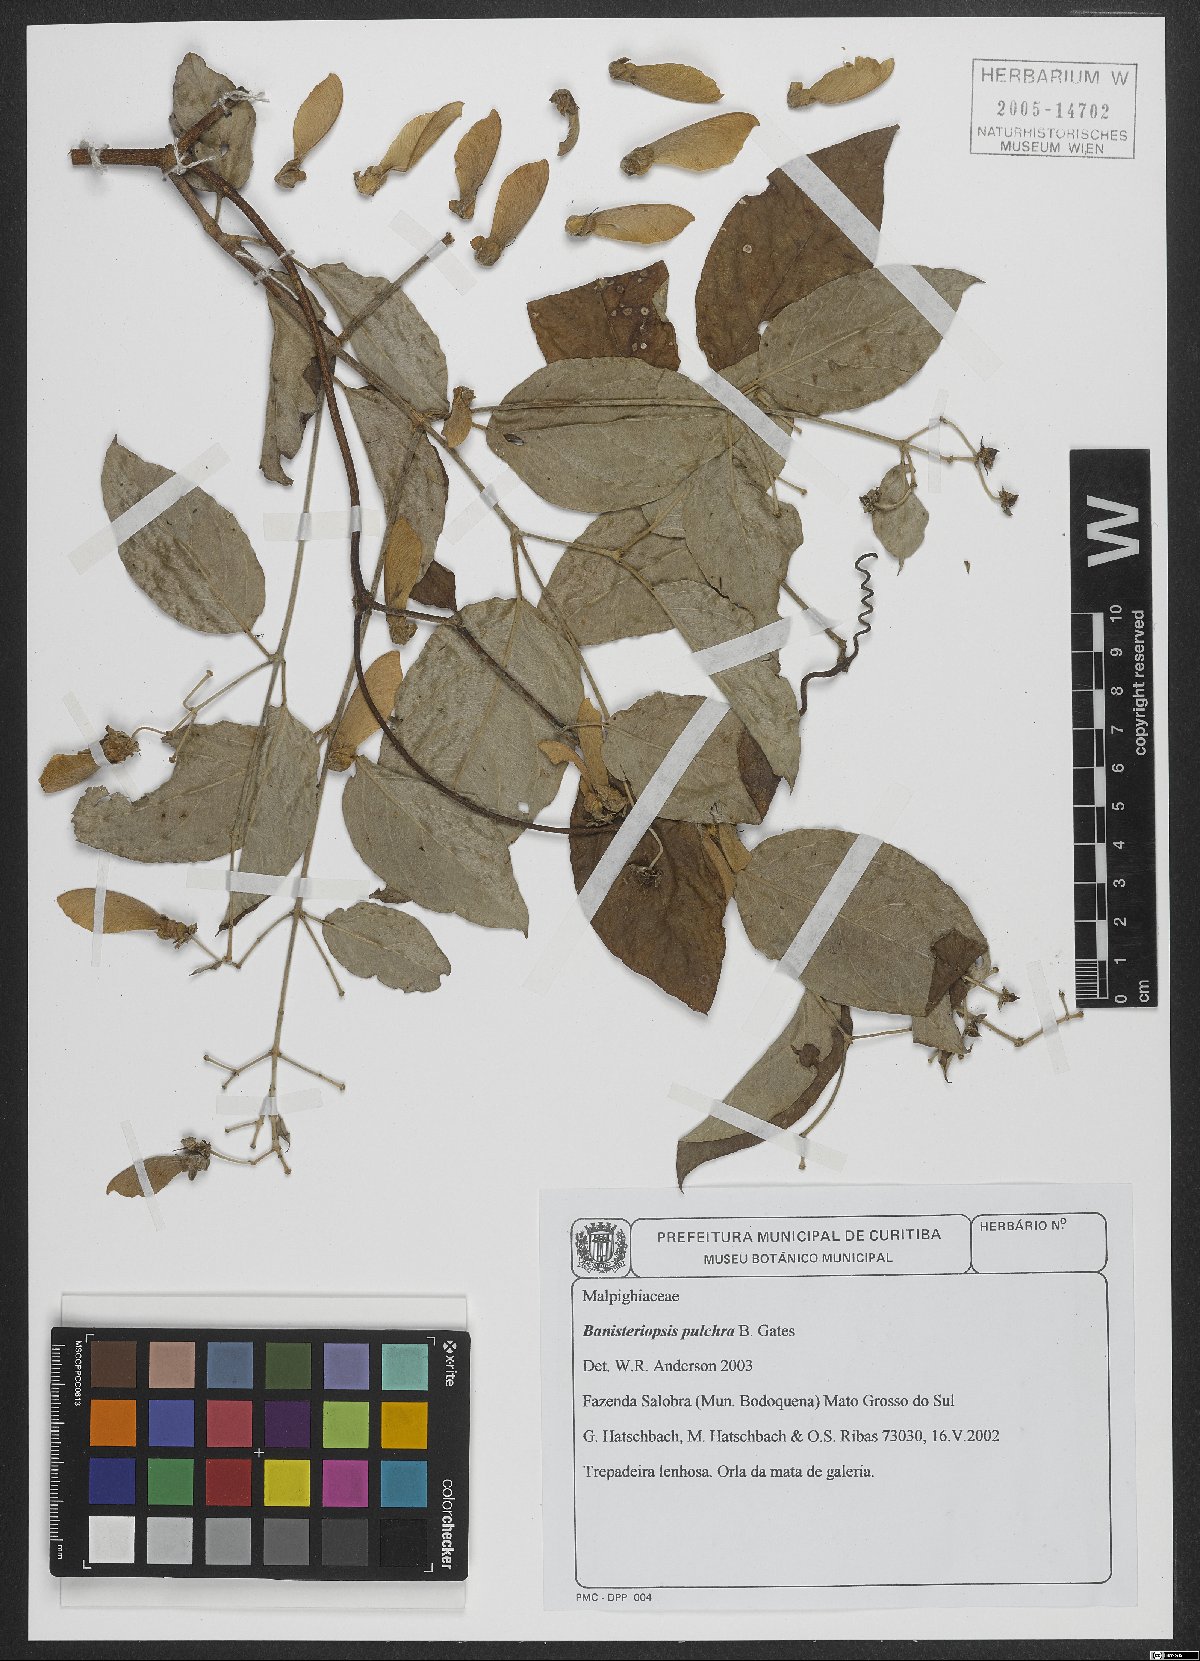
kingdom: Plantae
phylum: Tracheophyta
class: Magnoliopsida
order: Malpighiales
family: Malpighiaceae
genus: Banisteriopsis
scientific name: Banisteriopsis pulchra
